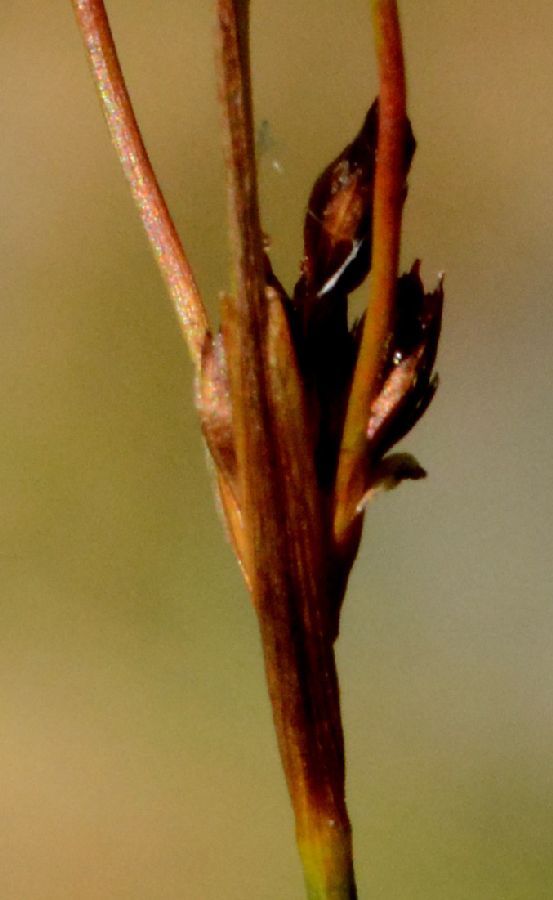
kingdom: Plantae
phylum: Tracheophyta
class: Liliopsida
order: Poales
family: Juncaceae
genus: Juncus
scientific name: Juncus alpinoarticulatus
